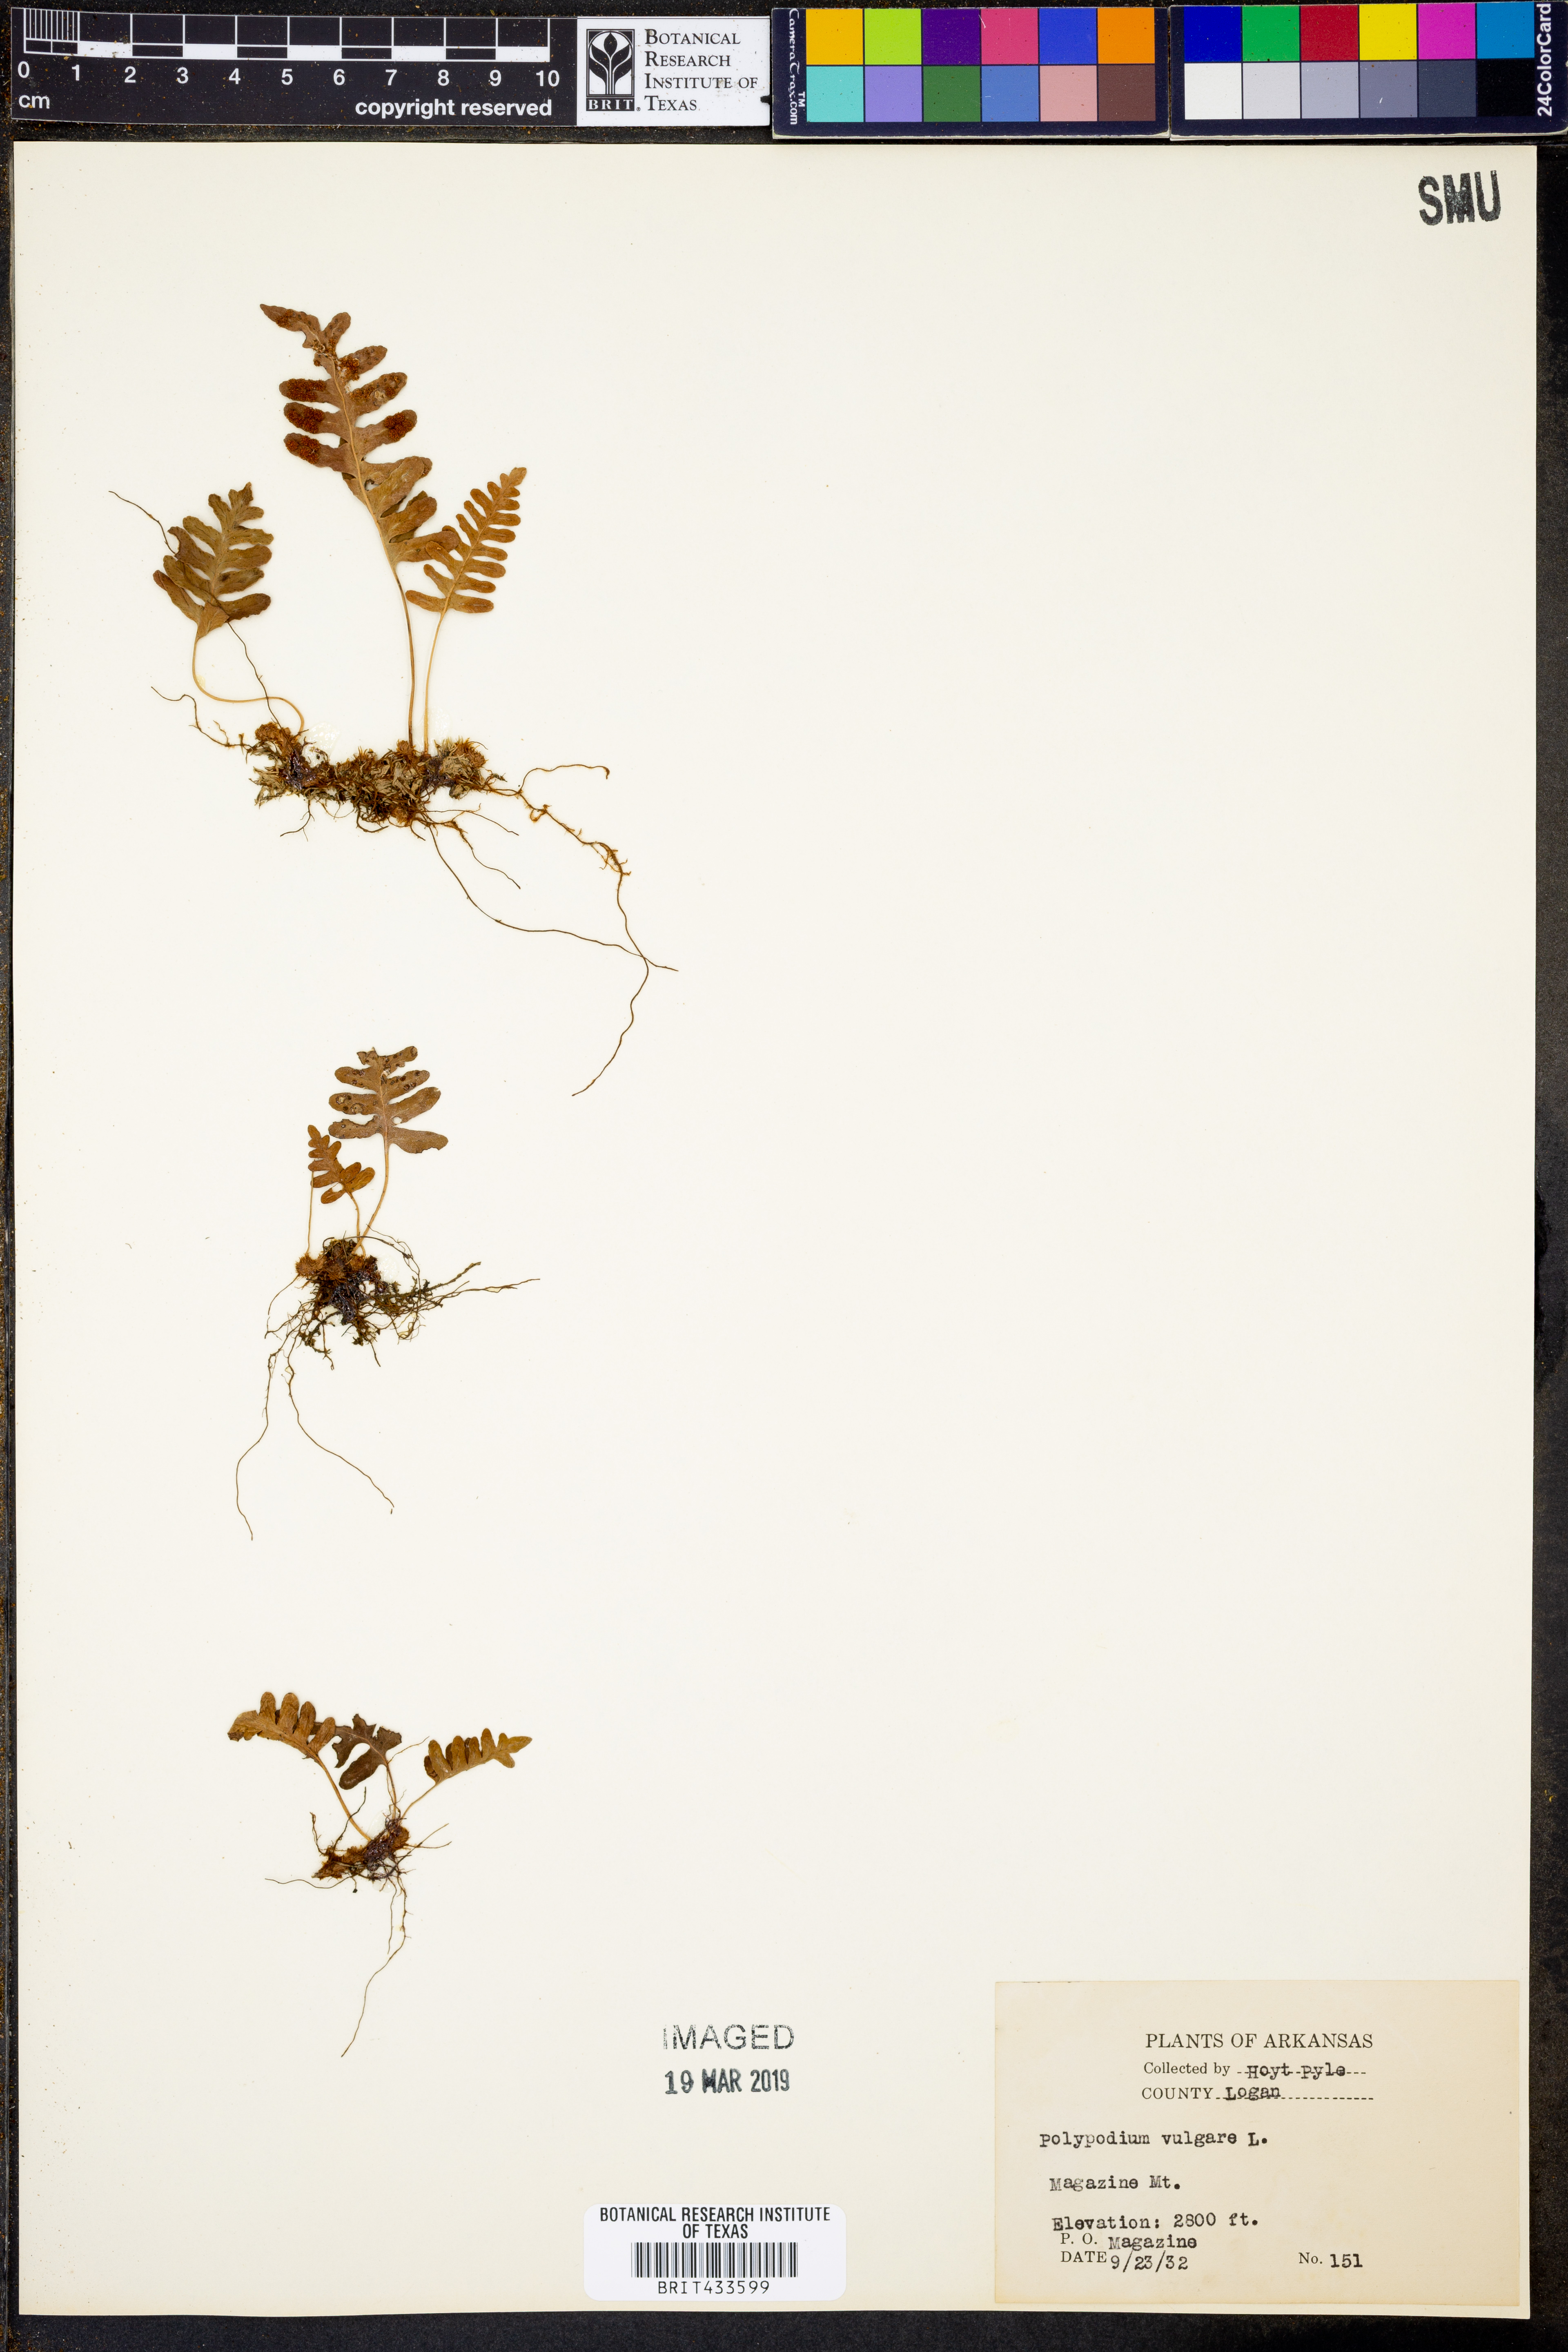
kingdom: Plantae
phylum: Tracheophyta
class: Polypodiopsida
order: Polypodiales
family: Polypodiaceae
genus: Polypodium
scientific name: Polypodium vulgare
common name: Common polypody
